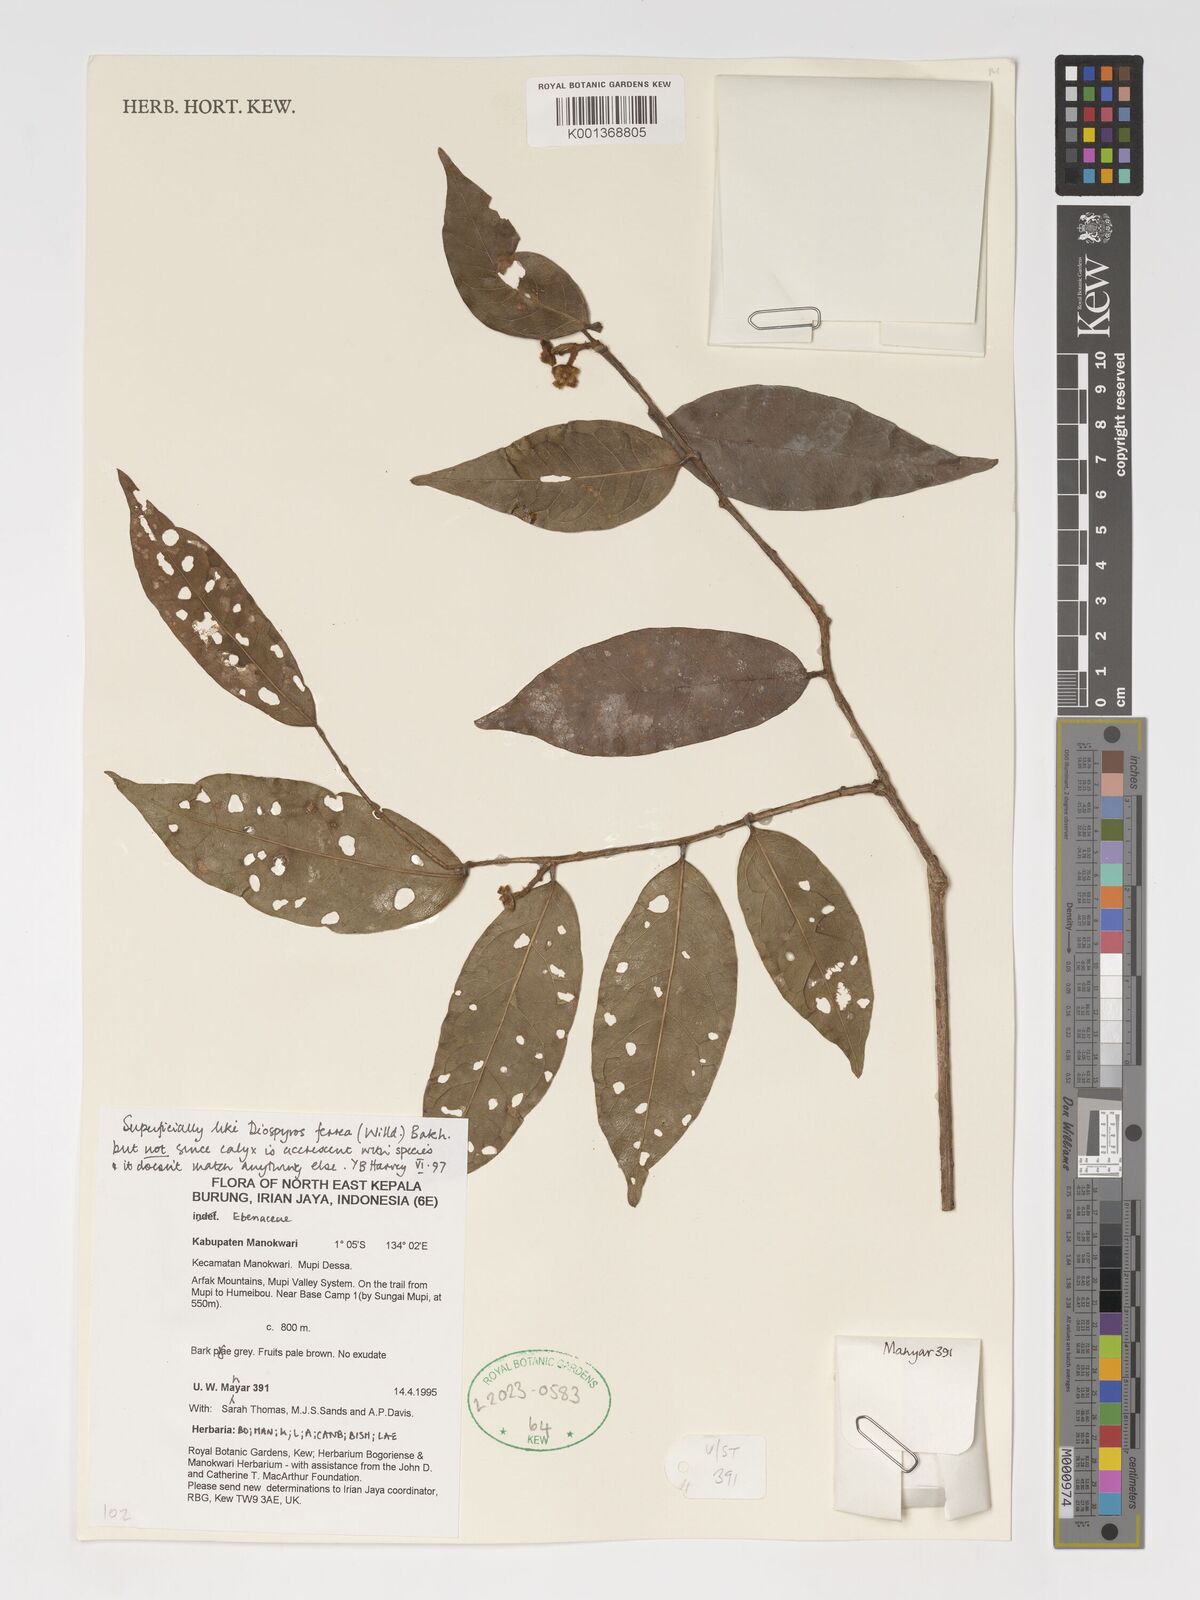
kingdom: Plantae
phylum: Tracheophyta
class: Magnoliopsida
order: Ericales
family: Ebenaceae
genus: Diospyros
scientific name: Diospyros
